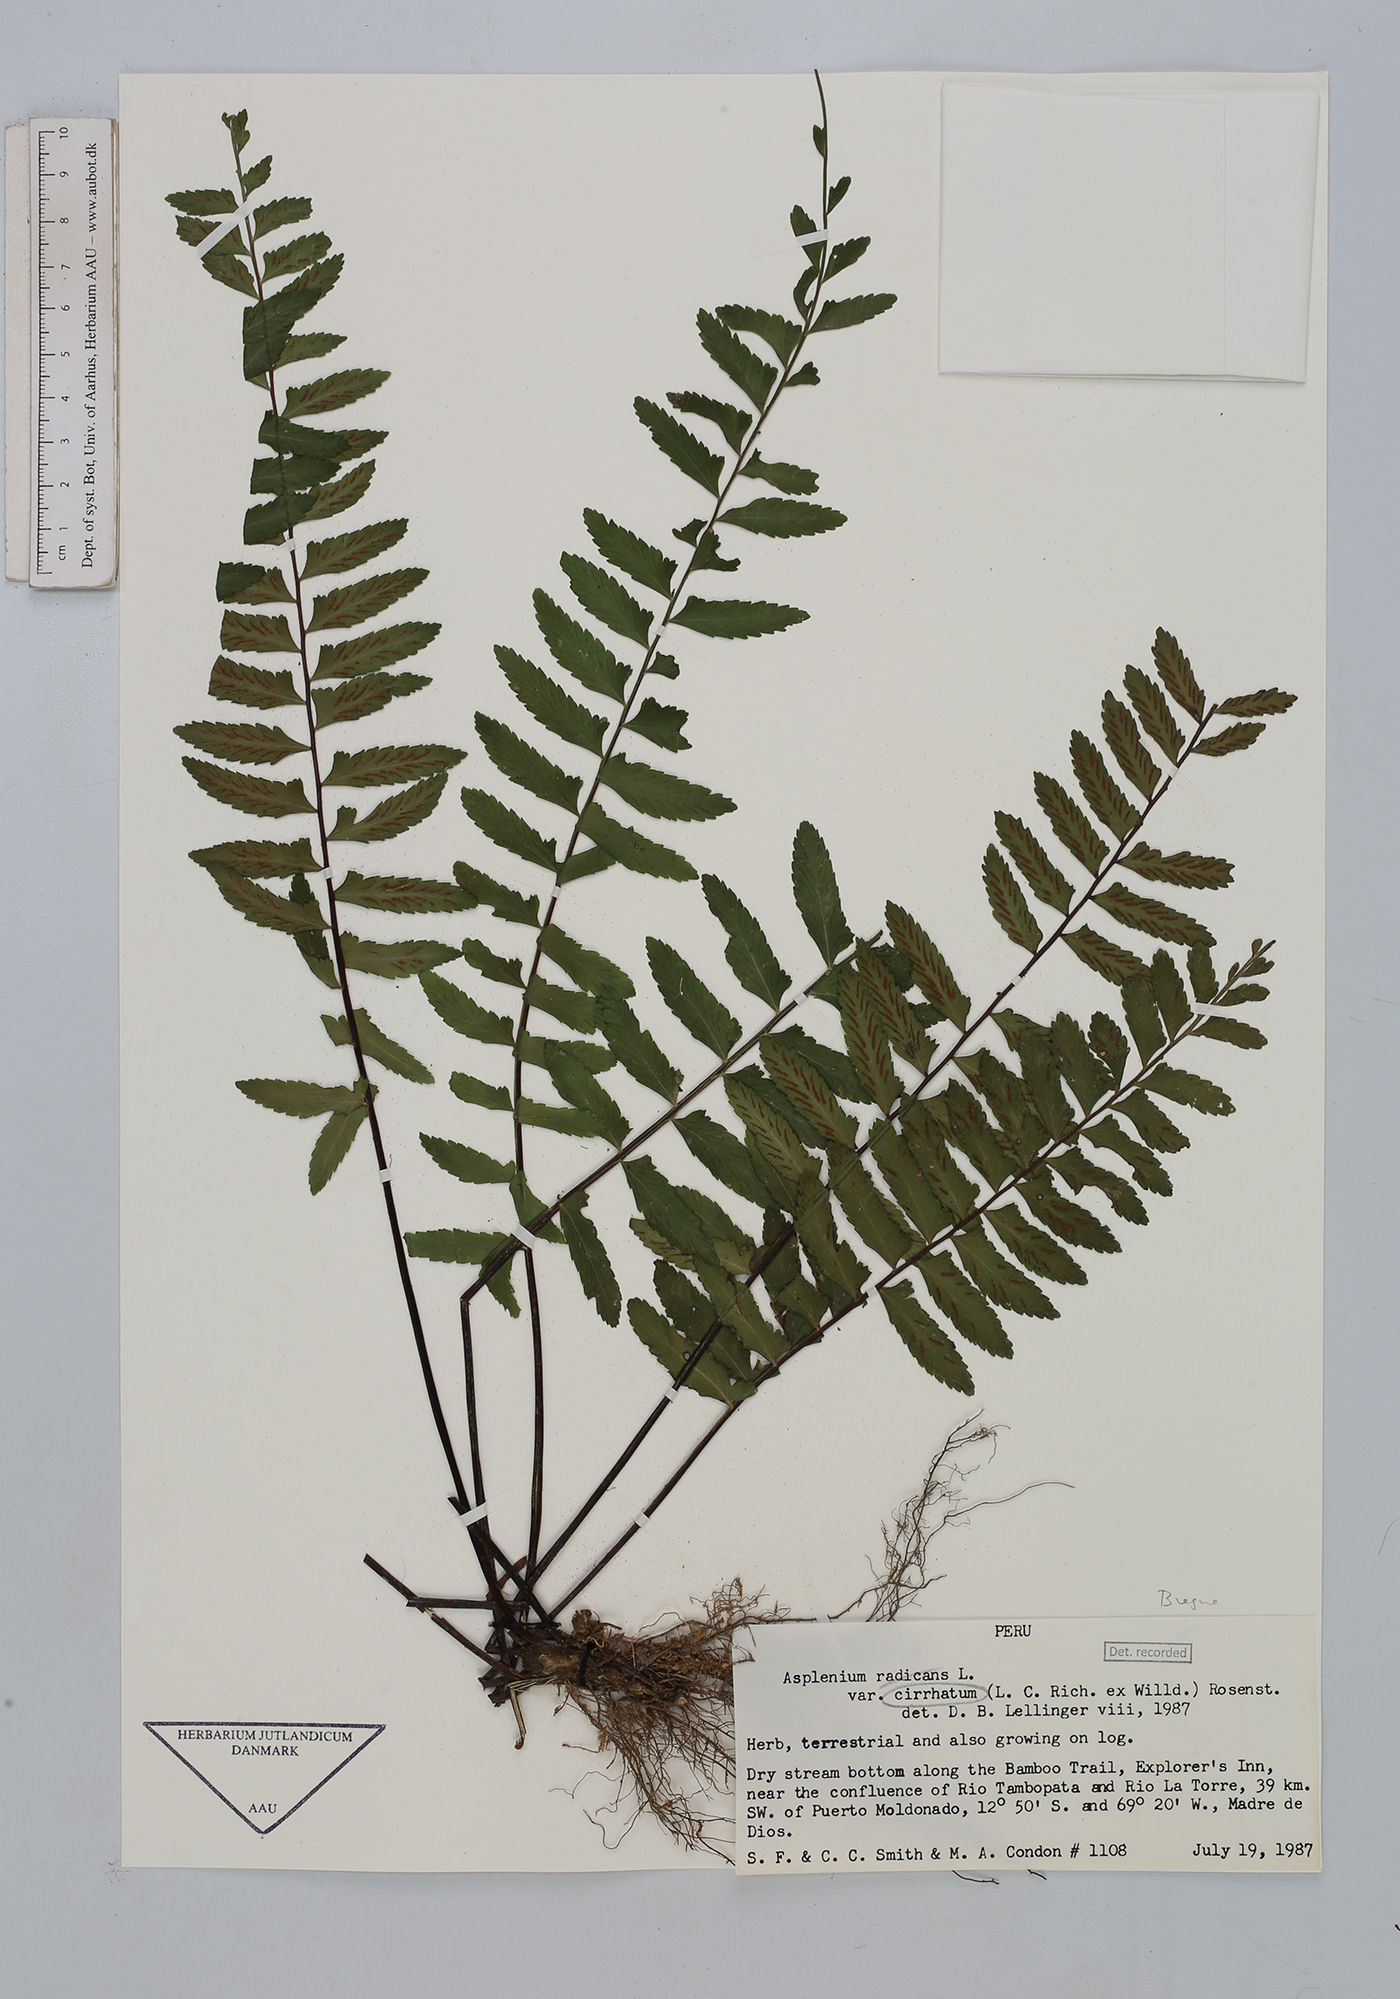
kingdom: Plantae
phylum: Tracheophyta
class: Polypodiopsida
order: Polypodiales
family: Aspleniaceae
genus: Asplenium
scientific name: Asplenium cirrhatum
